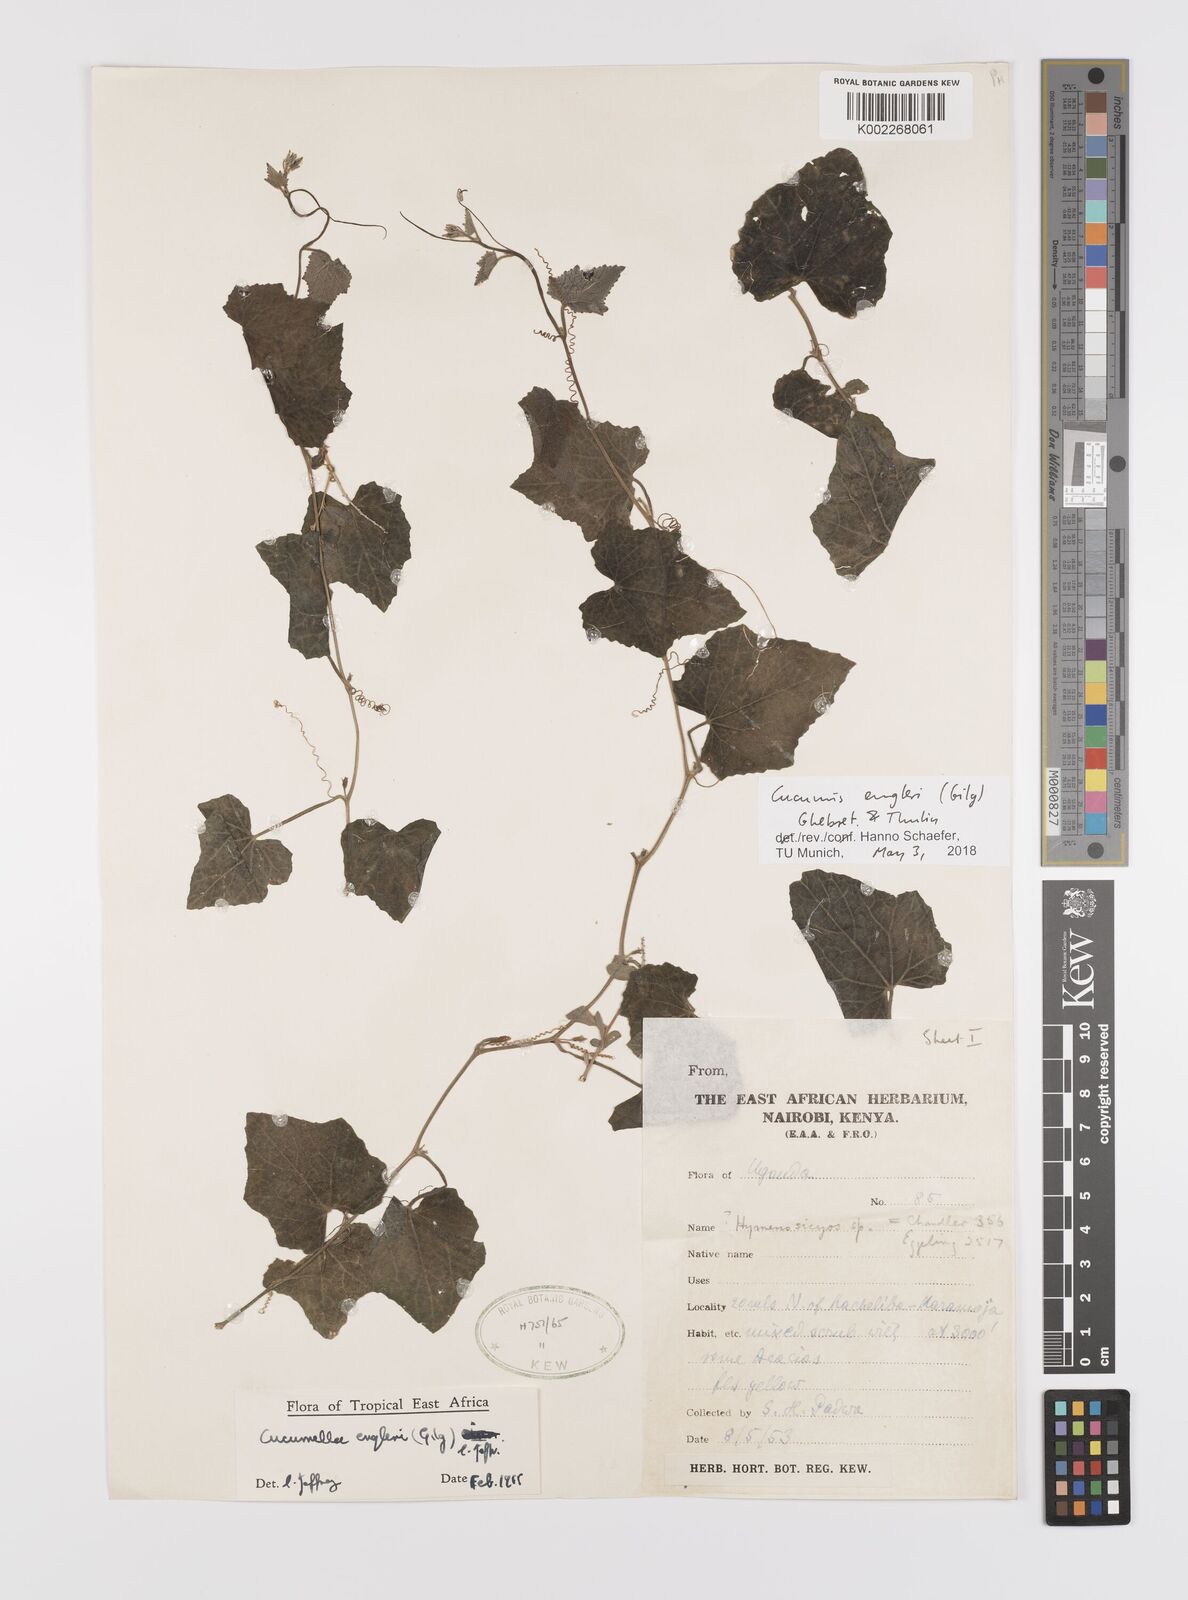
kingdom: Plantae
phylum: Tracheophyta
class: Magnoliopsida
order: Cucurbitales
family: Cucurbitaceae
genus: Cucumis
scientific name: Cucumis engleri
